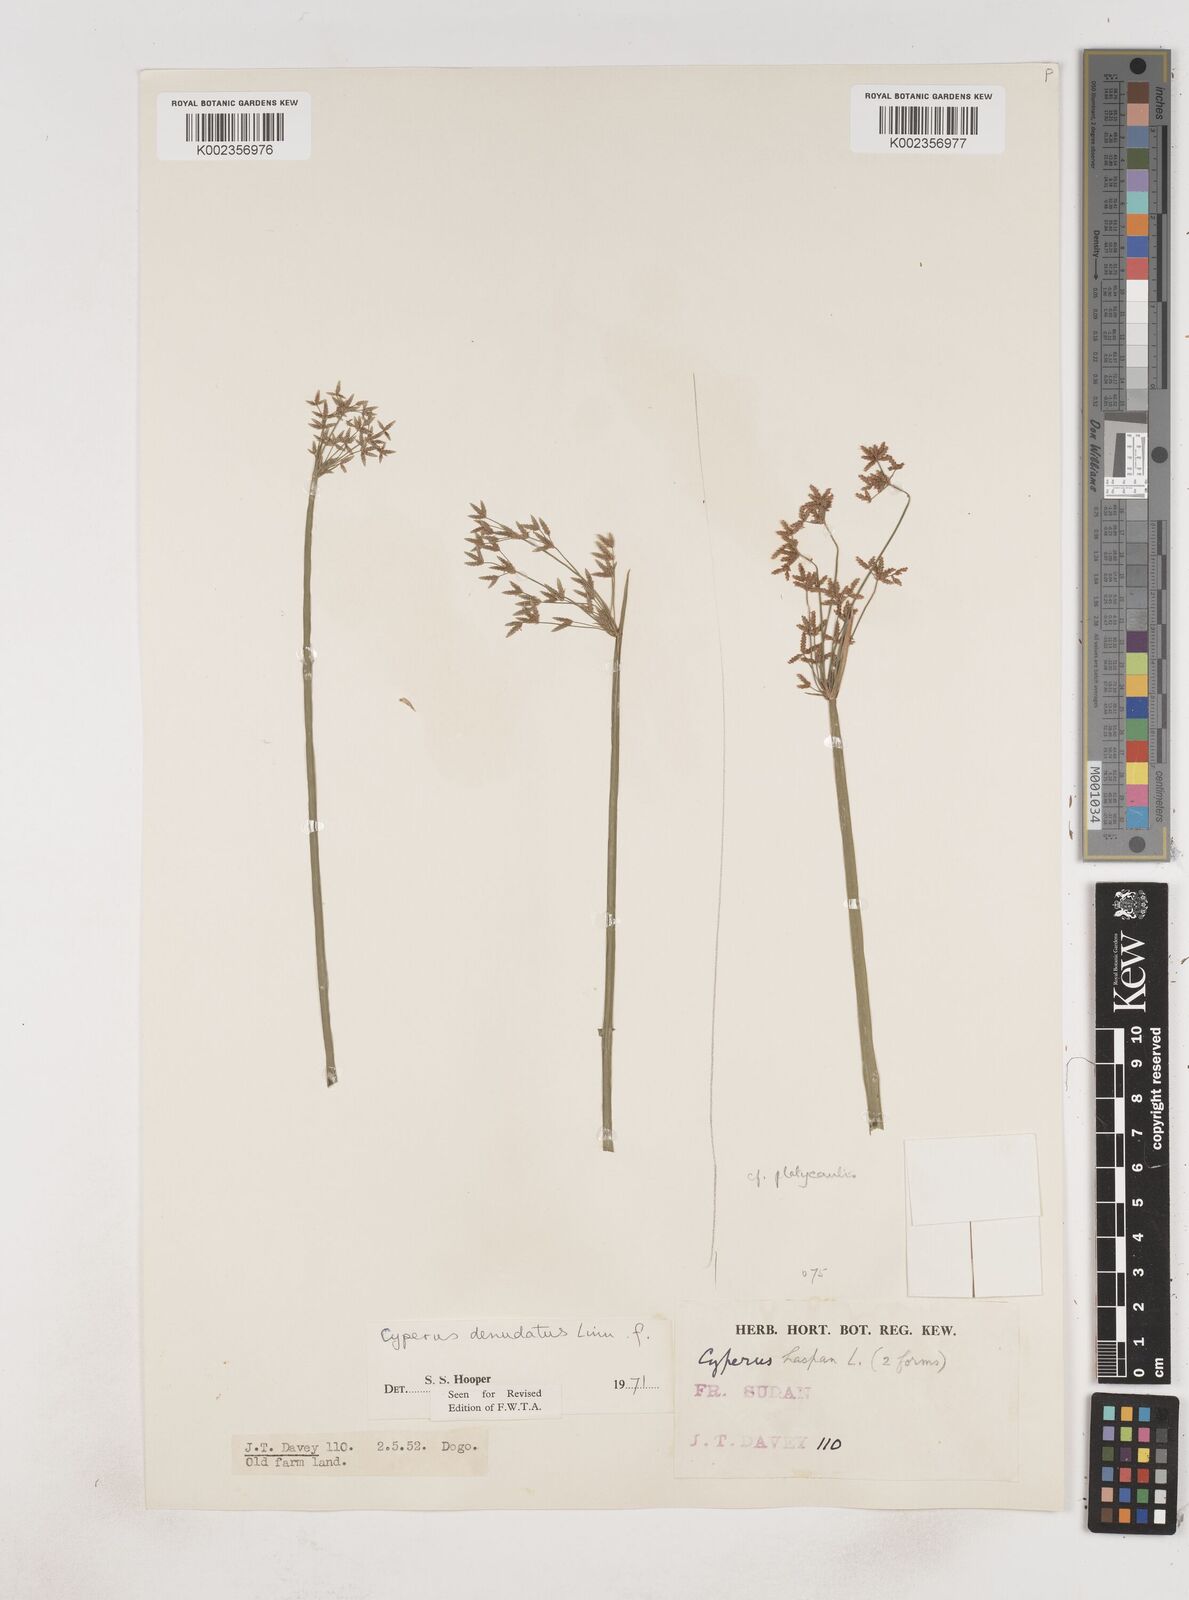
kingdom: Plantae
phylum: Tracheophyta
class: Liliopsida
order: Poales
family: Cyperaceae
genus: Cyperus
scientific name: Cyperus denudatus
